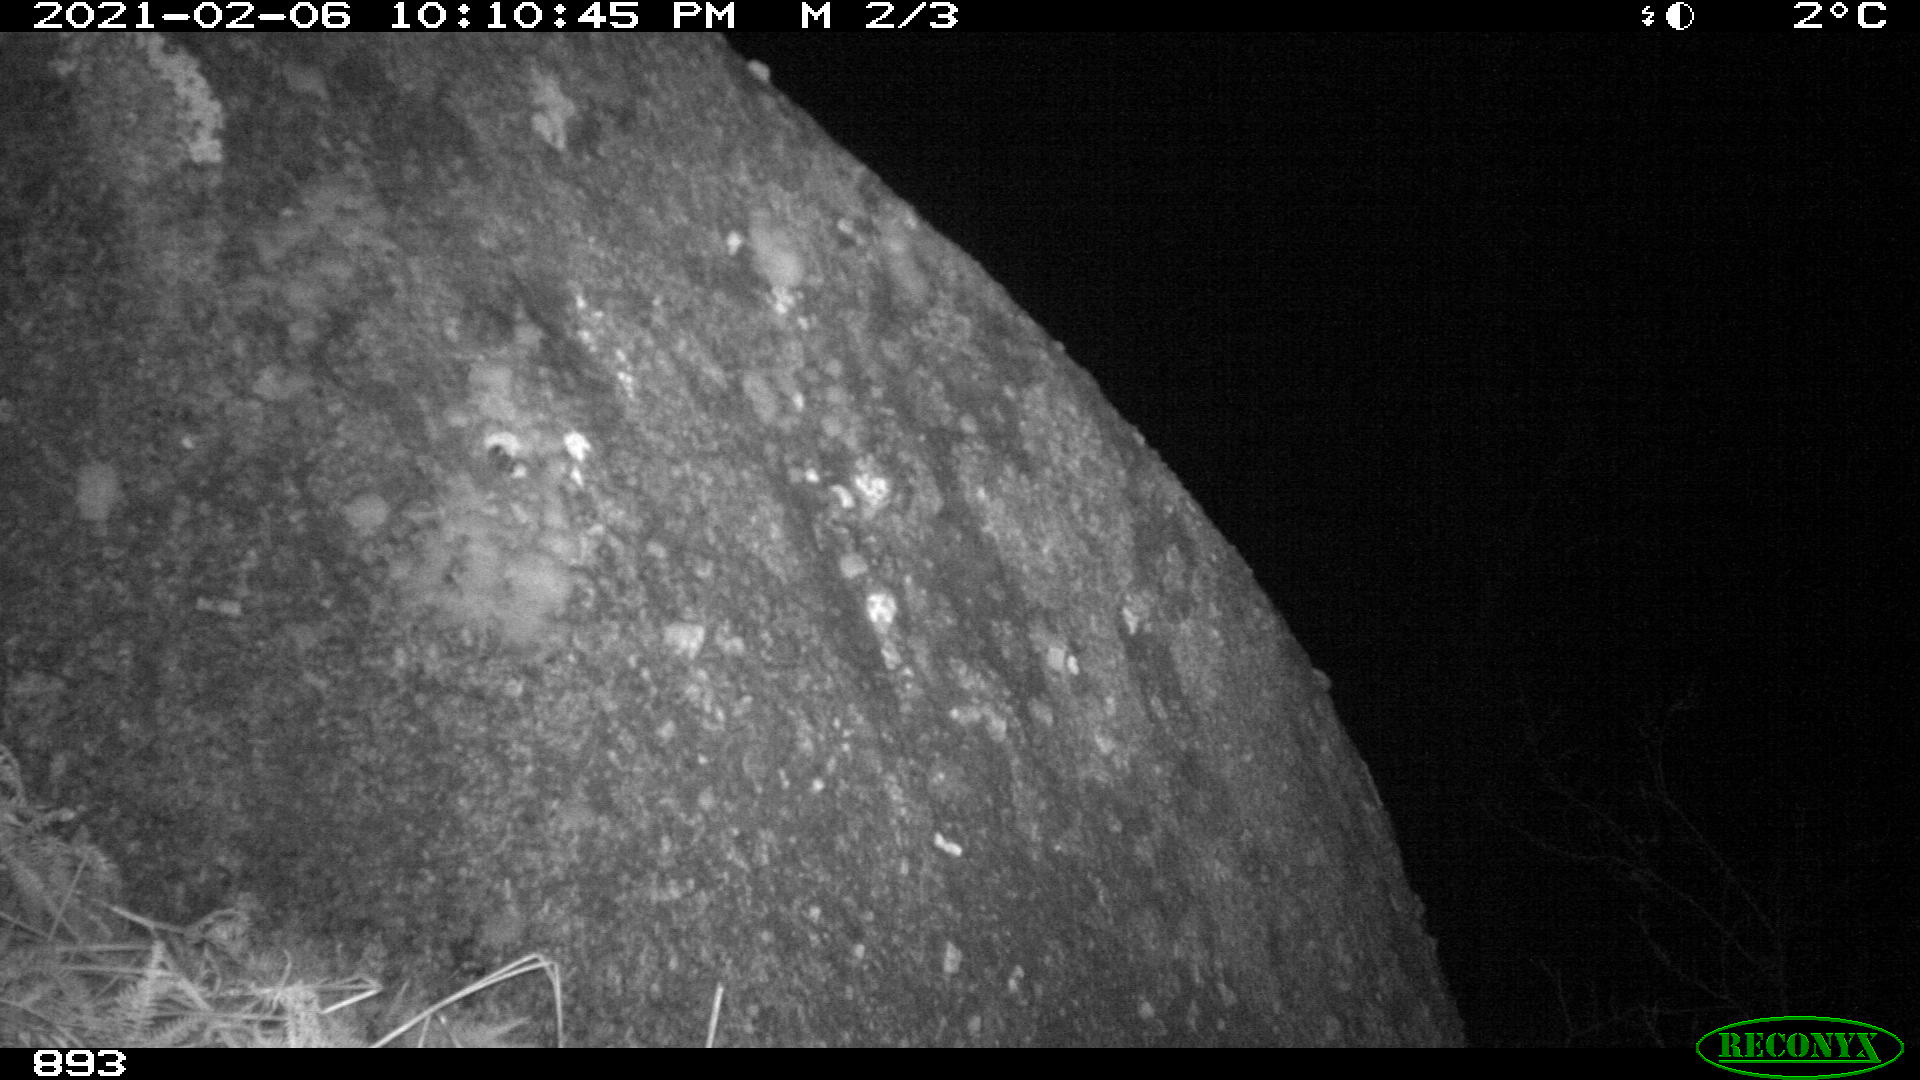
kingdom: Animalia
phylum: Chordata
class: Mammalia
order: Artiodactyla
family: Cervidae
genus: Capreolus
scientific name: Capreolus capreolus
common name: Western roe deer
